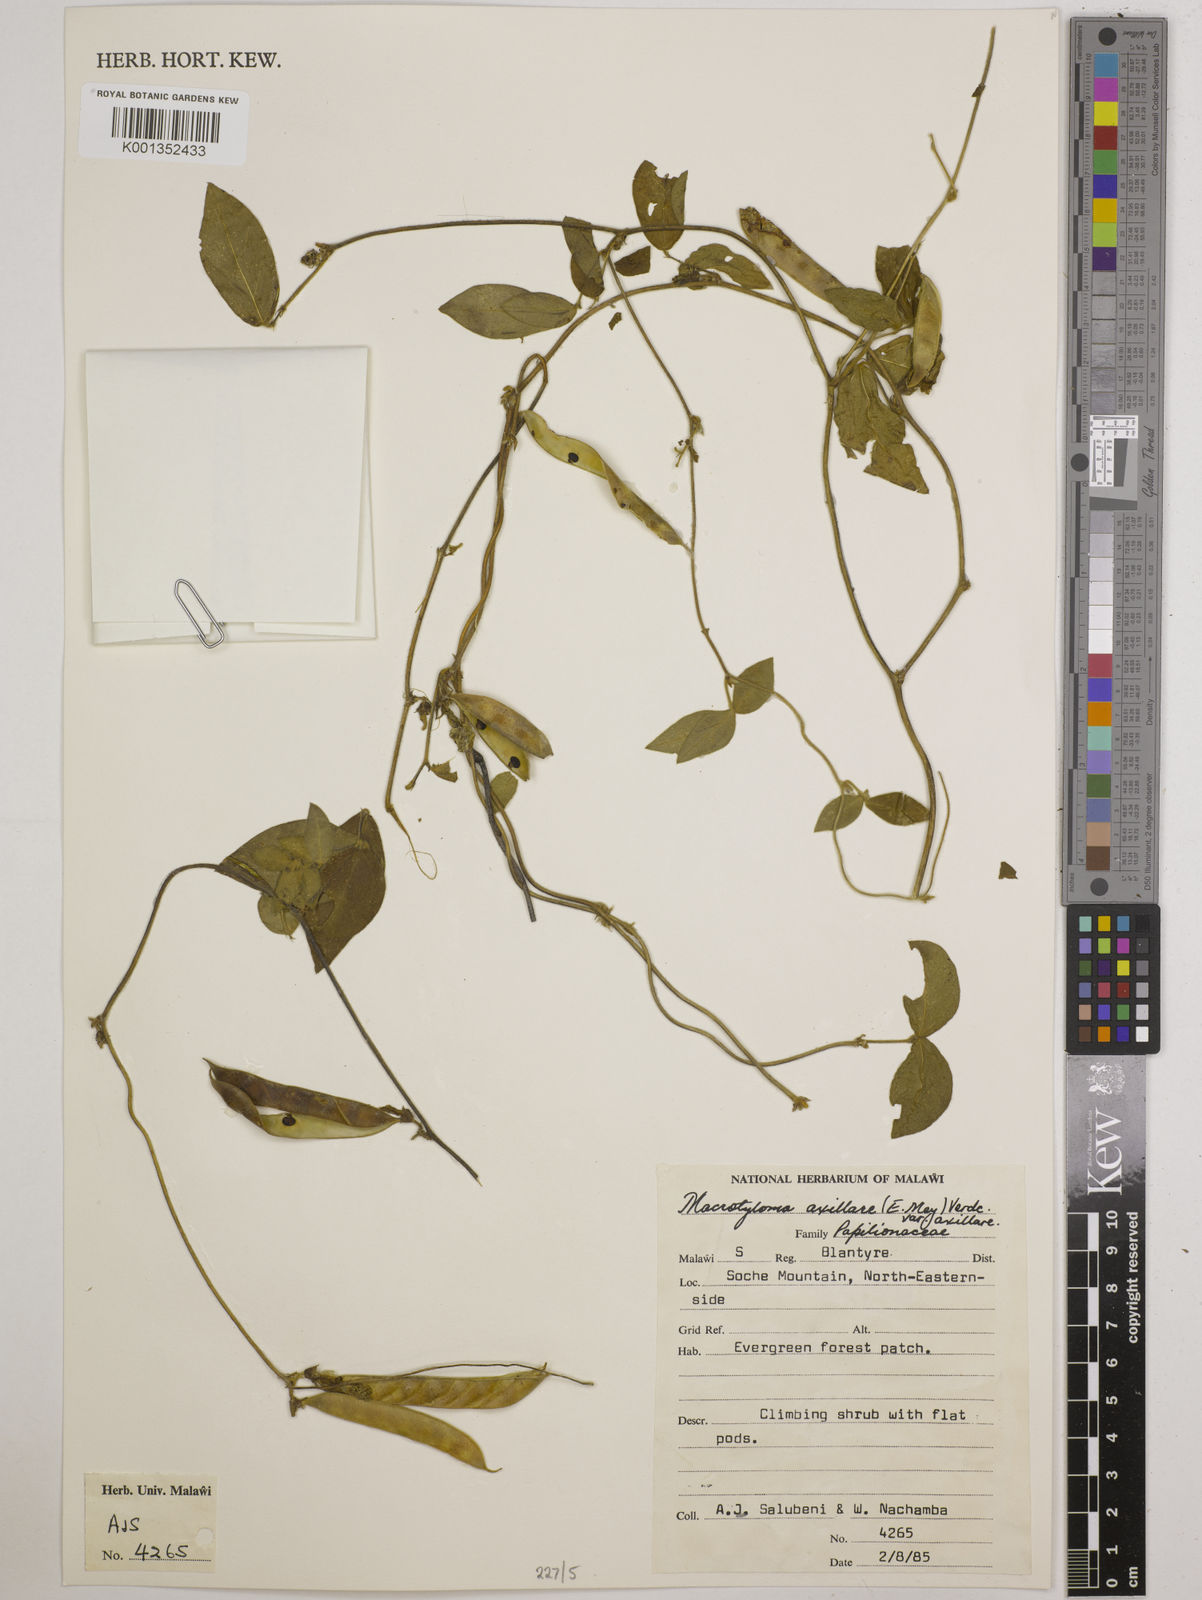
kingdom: Plantae
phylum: Tracheophyta
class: Magnoliopsida
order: Fabales
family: Fabaceae
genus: Macrotyloma
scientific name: Macrotyloma axillare
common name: Perennial horsegram
